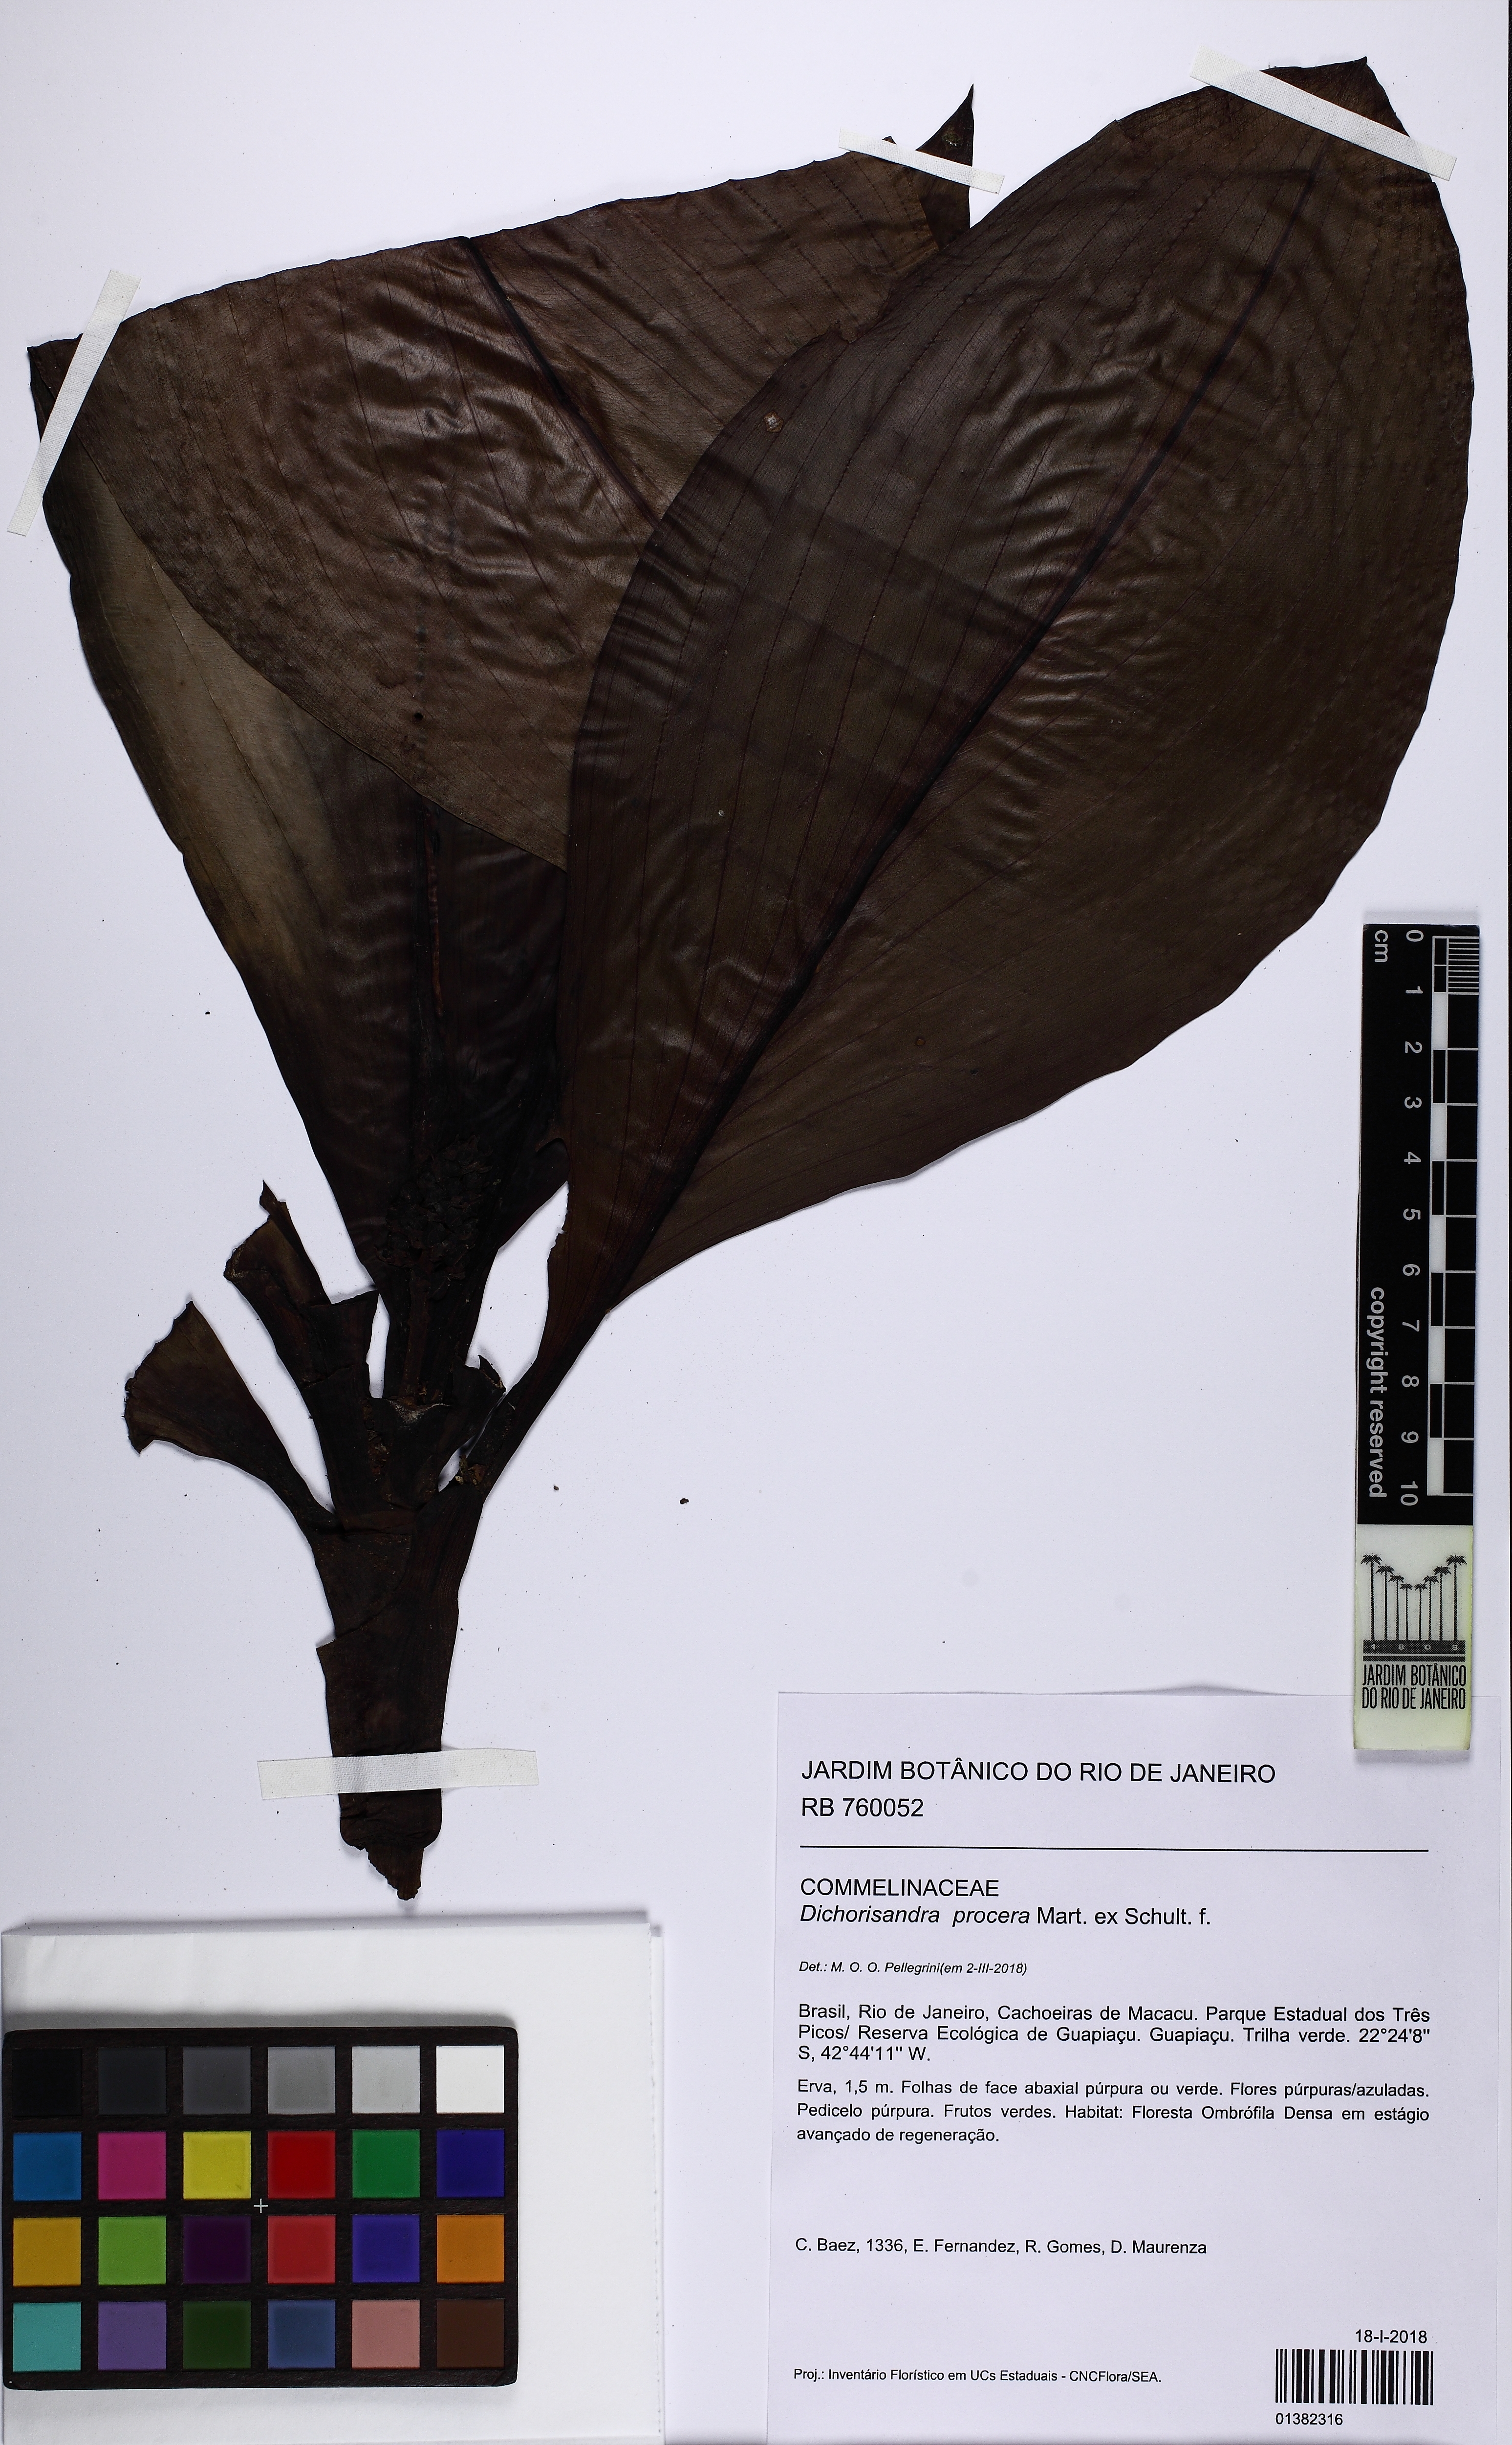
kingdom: Plantae
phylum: Tracheophyta
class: Liliopsida
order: Commelinales
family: Commelinaceae
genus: Dichorisandra
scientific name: Dichorisandra procera
